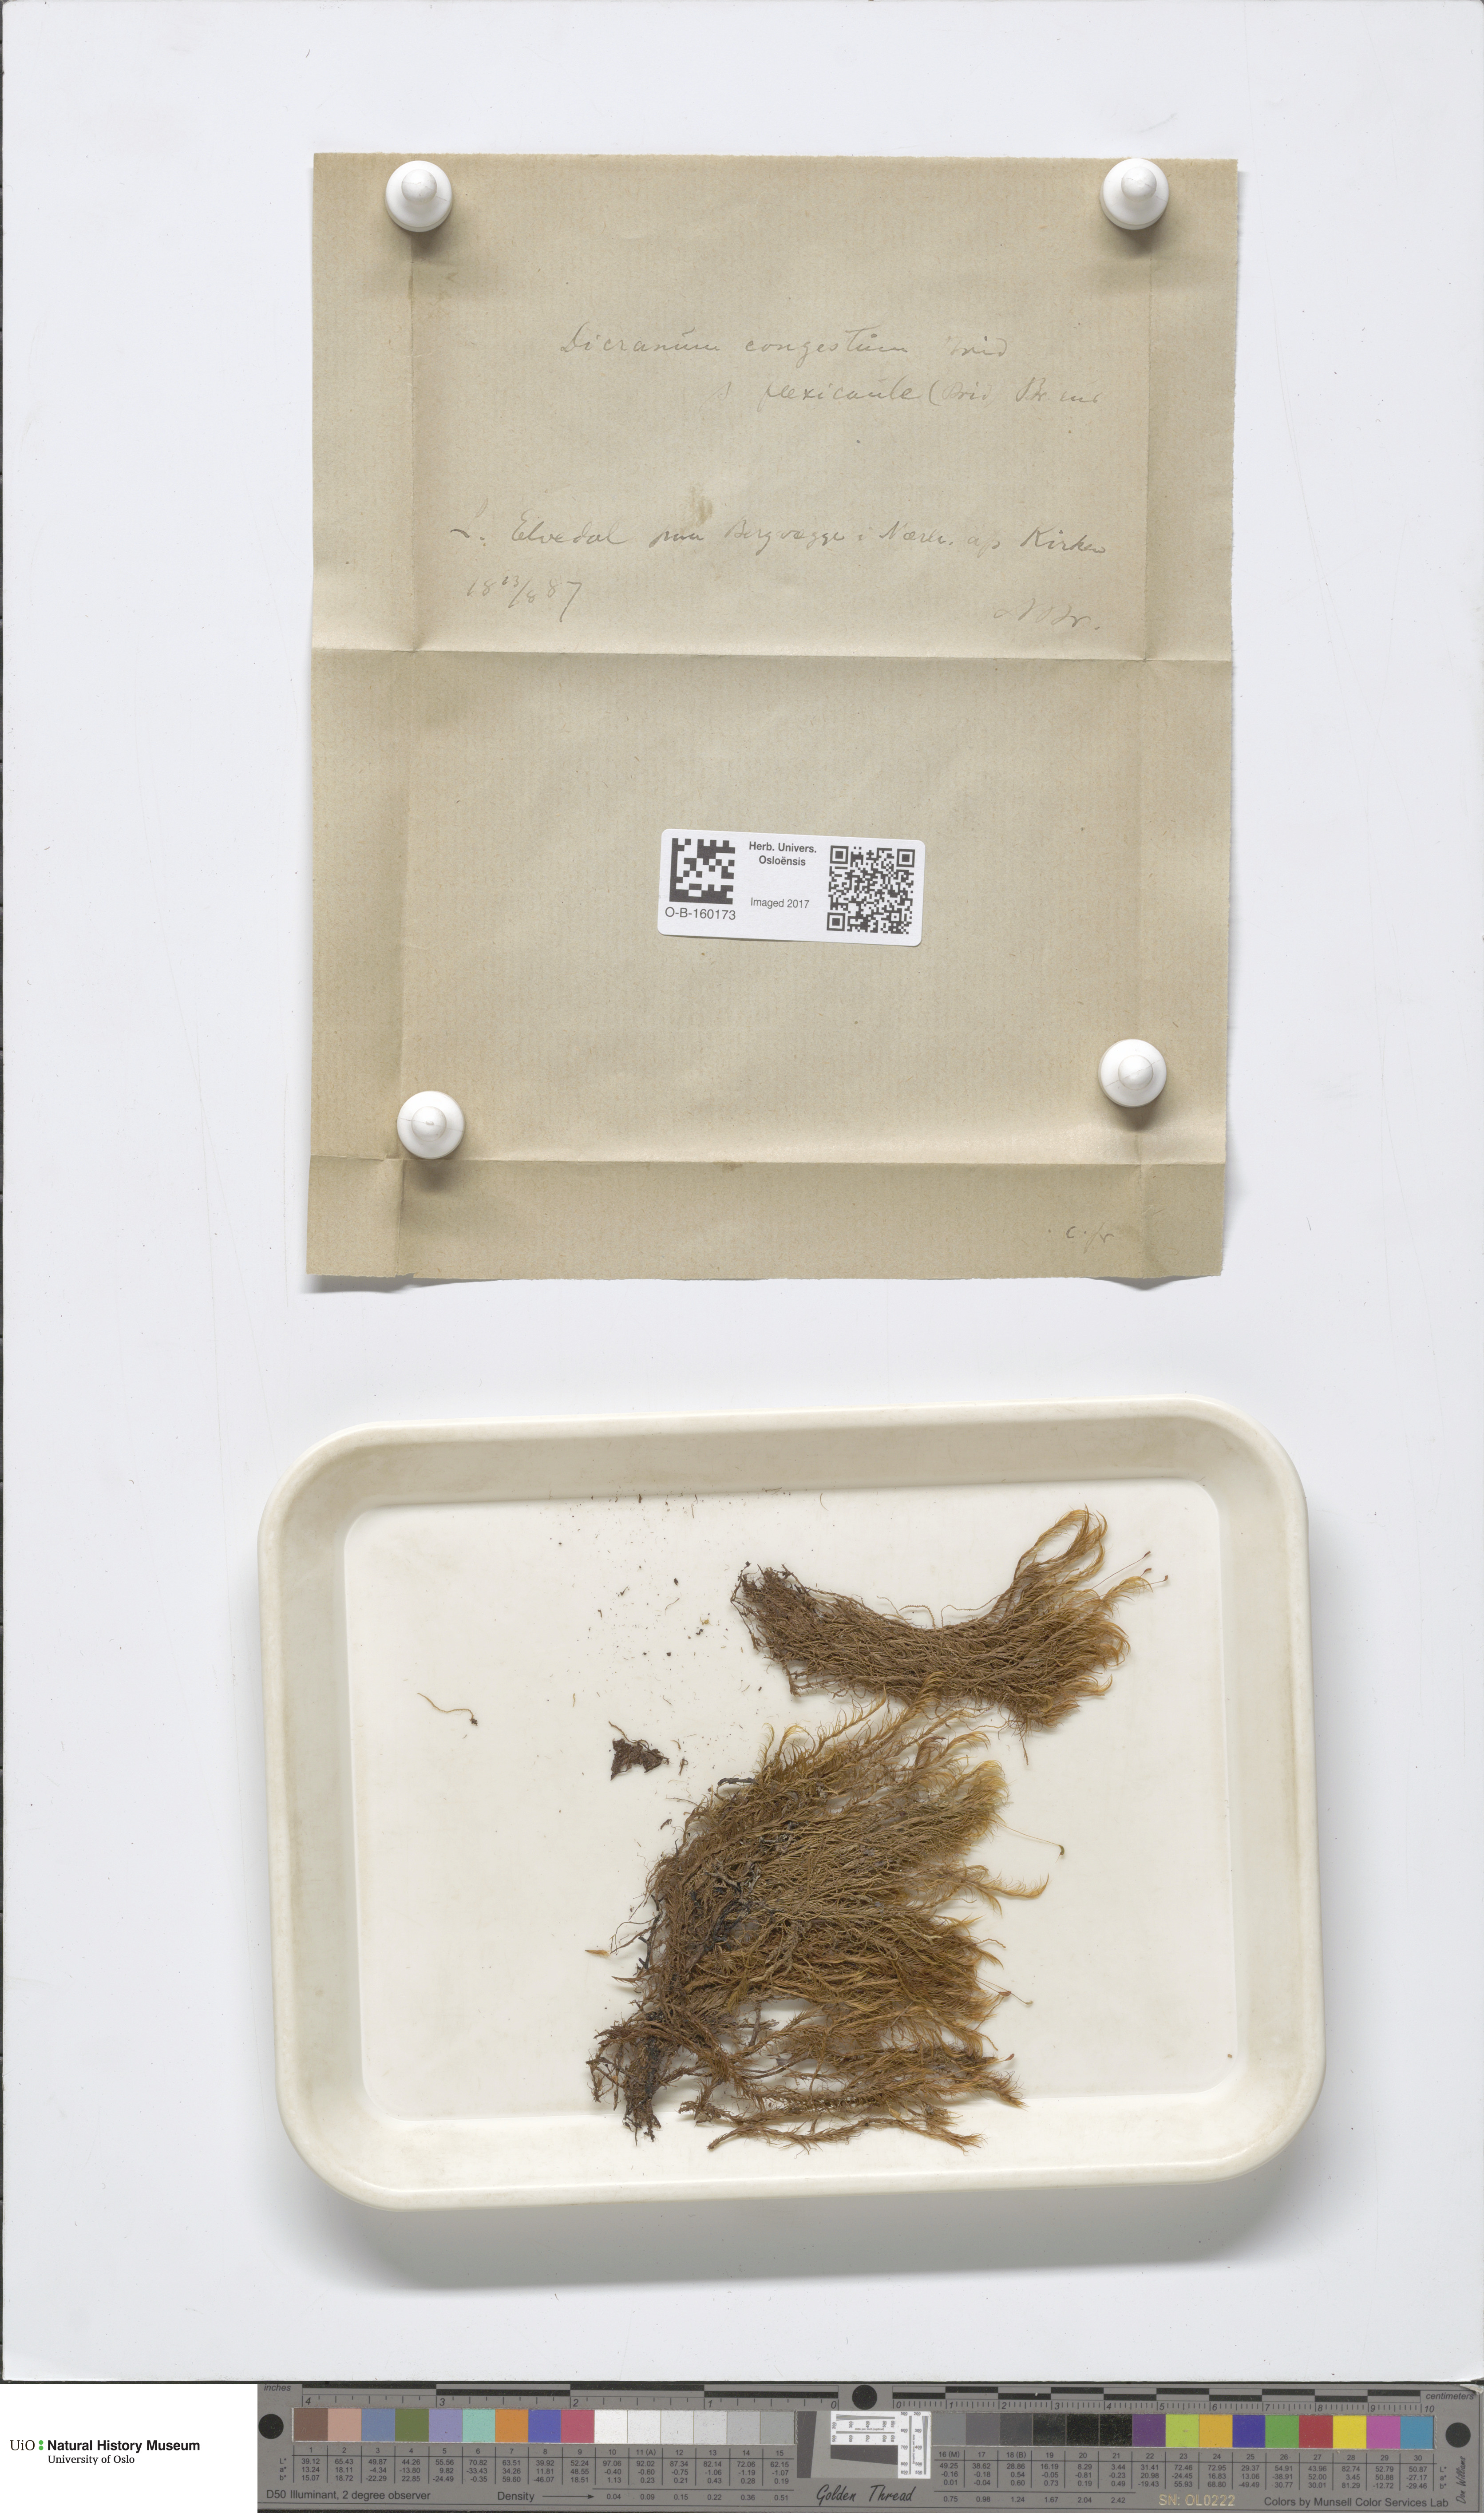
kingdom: Plantae
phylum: Bryophyta
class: Bryopsida
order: Dicranales
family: Dicranaceae
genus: Dicranum
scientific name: Dicranum flexicaule
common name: Bendy heron s-bill moss
